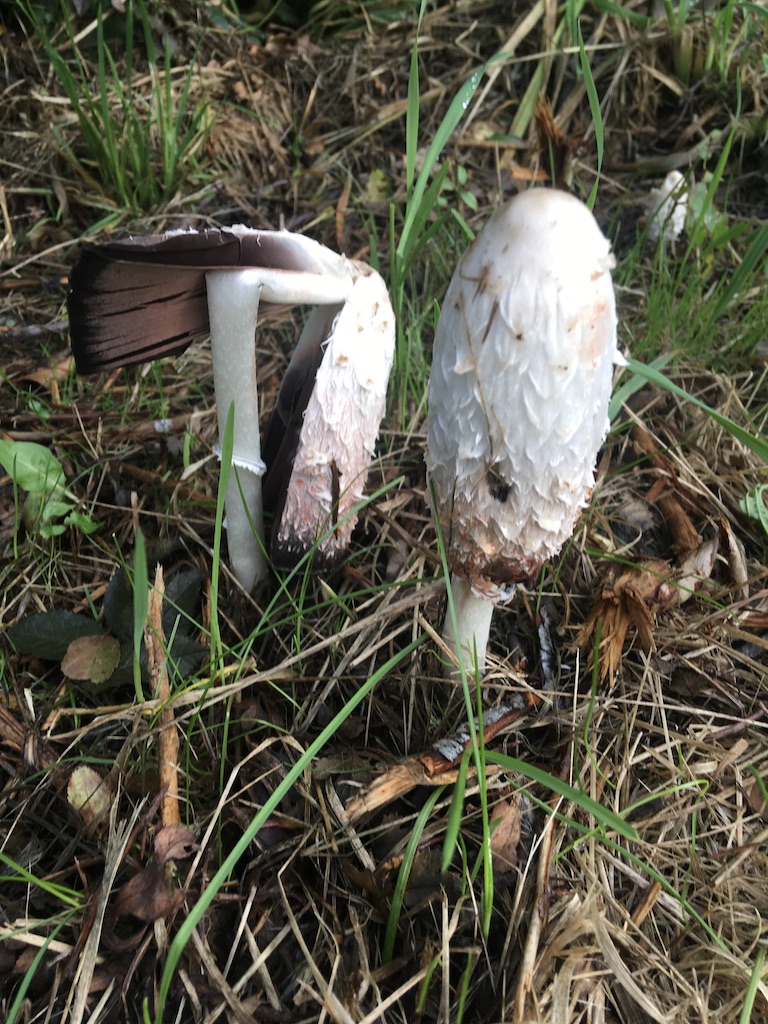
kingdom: Fungi
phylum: Basidiomycota
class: Agaricomycetes
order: Agaricales
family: Agaricaceae
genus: Coprinus
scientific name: Coprinus comatus
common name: stor parykhat
